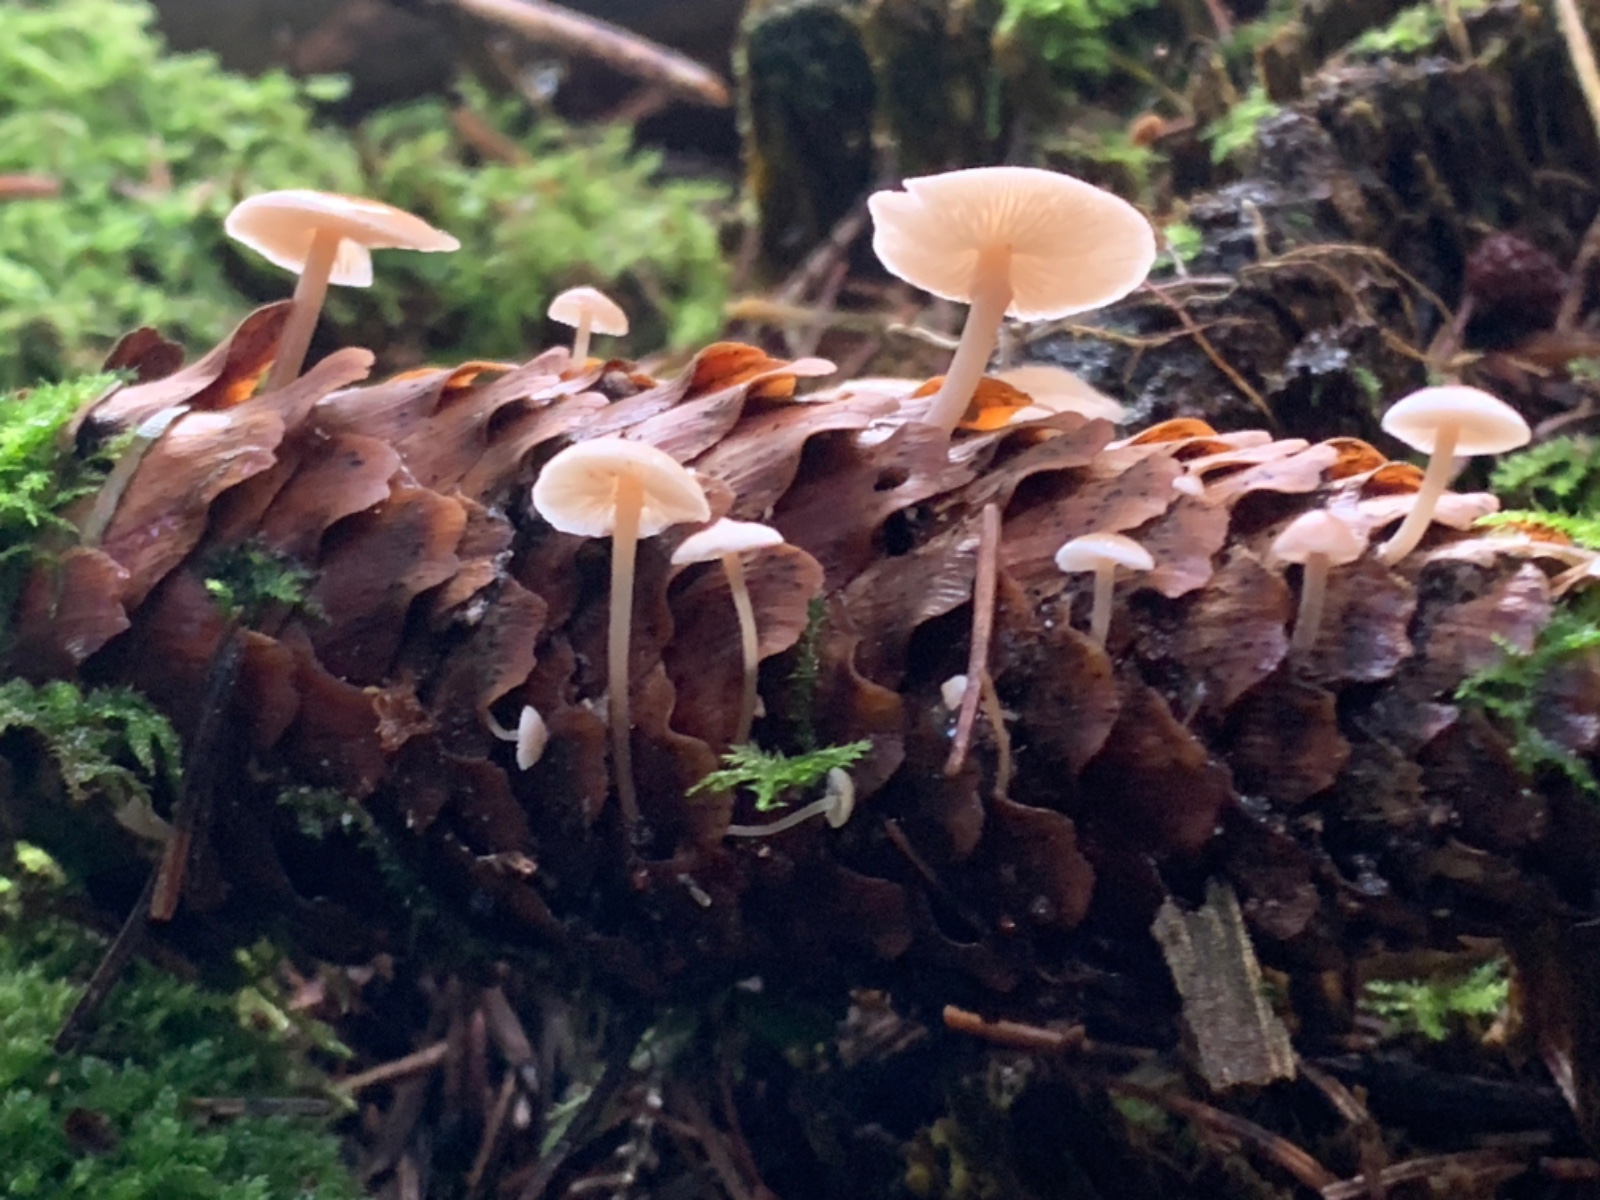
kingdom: Fungi
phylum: Basidiomycota
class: Agaricomycetes
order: Agaricales
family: Marasmiaceae
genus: Baeospora
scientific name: Baeospora myosura
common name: koglebruskhat
